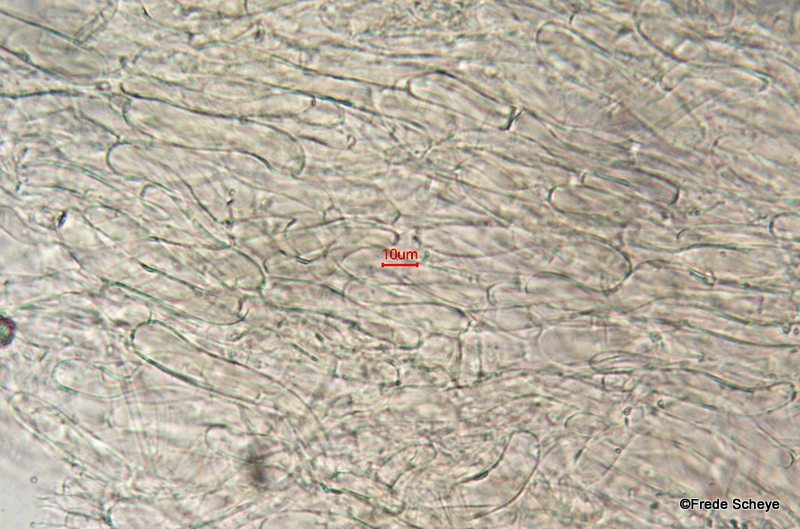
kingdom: Fungi
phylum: Basidiomycota
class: Agaricomycetes
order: Agaricales
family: Hygrophoraceae
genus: Hygrocybe
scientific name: Hygrocybe ceracea
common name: voksgul vokshat
